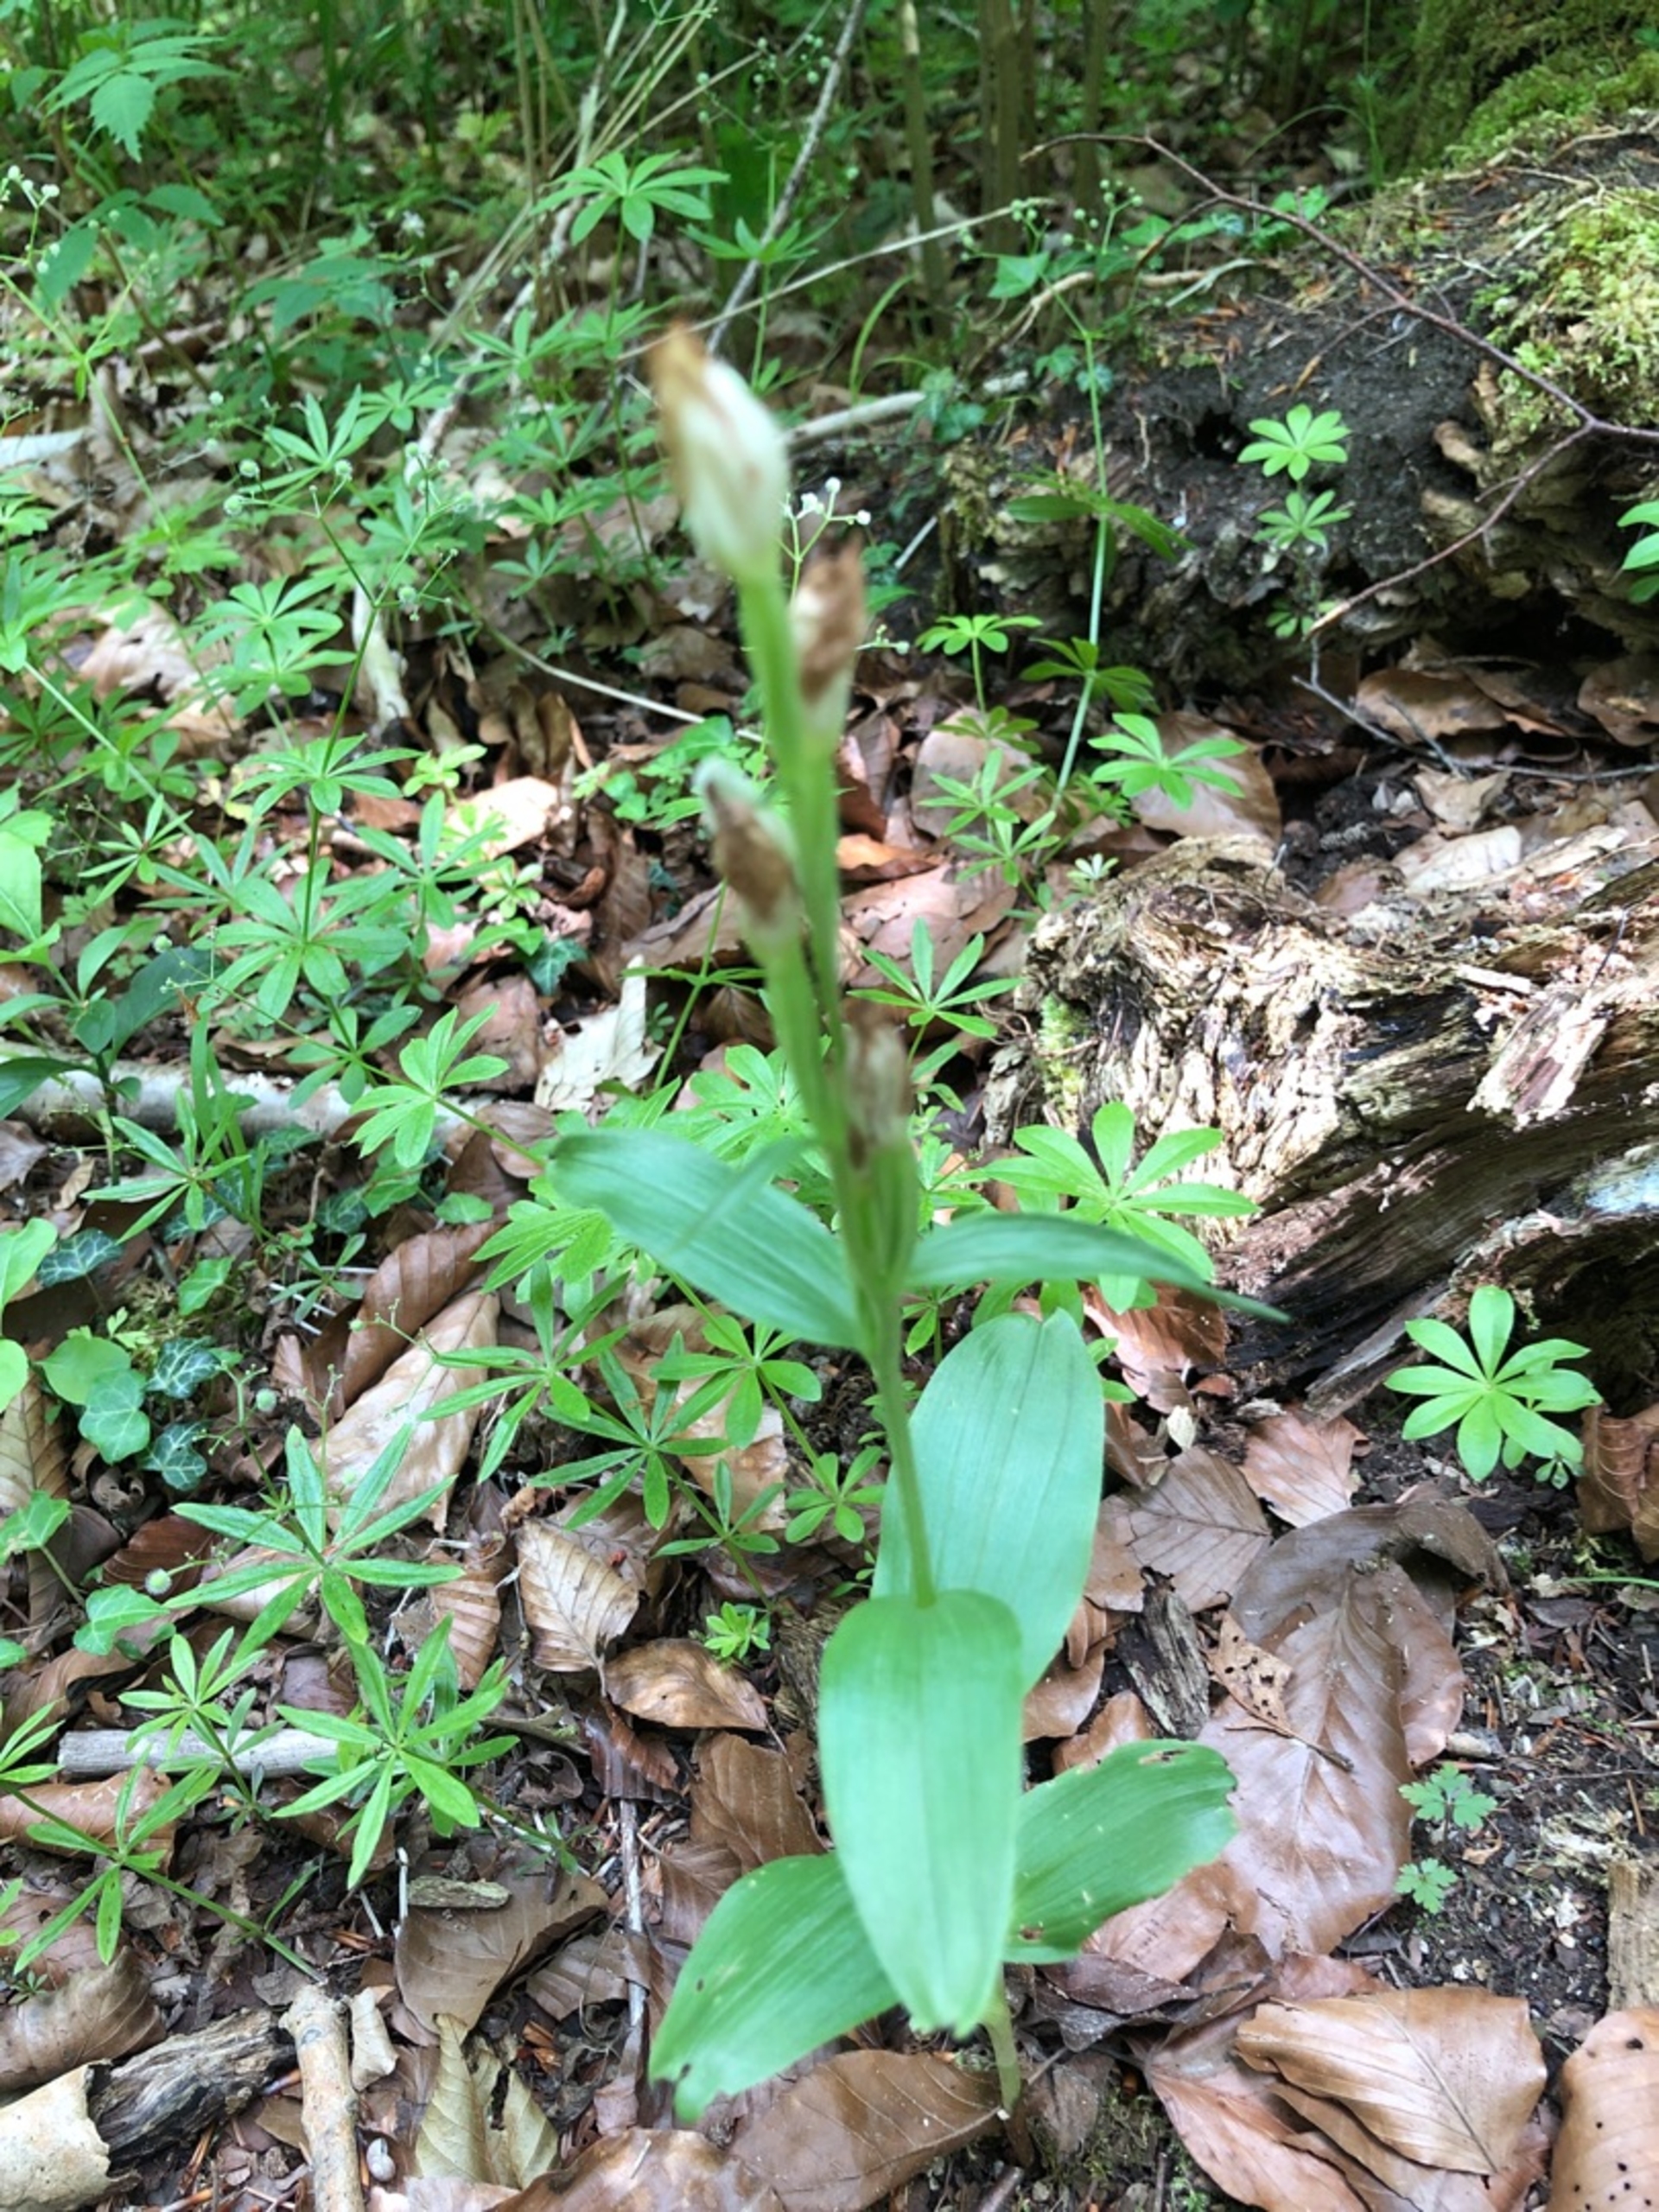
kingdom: Plantae
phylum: Tracheophyta
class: Liliopsida
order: Asparagales
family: Orchidaceae
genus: Cephalanthera
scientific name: Cephalanthera damasonium
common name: Hvidgul skovlilje
